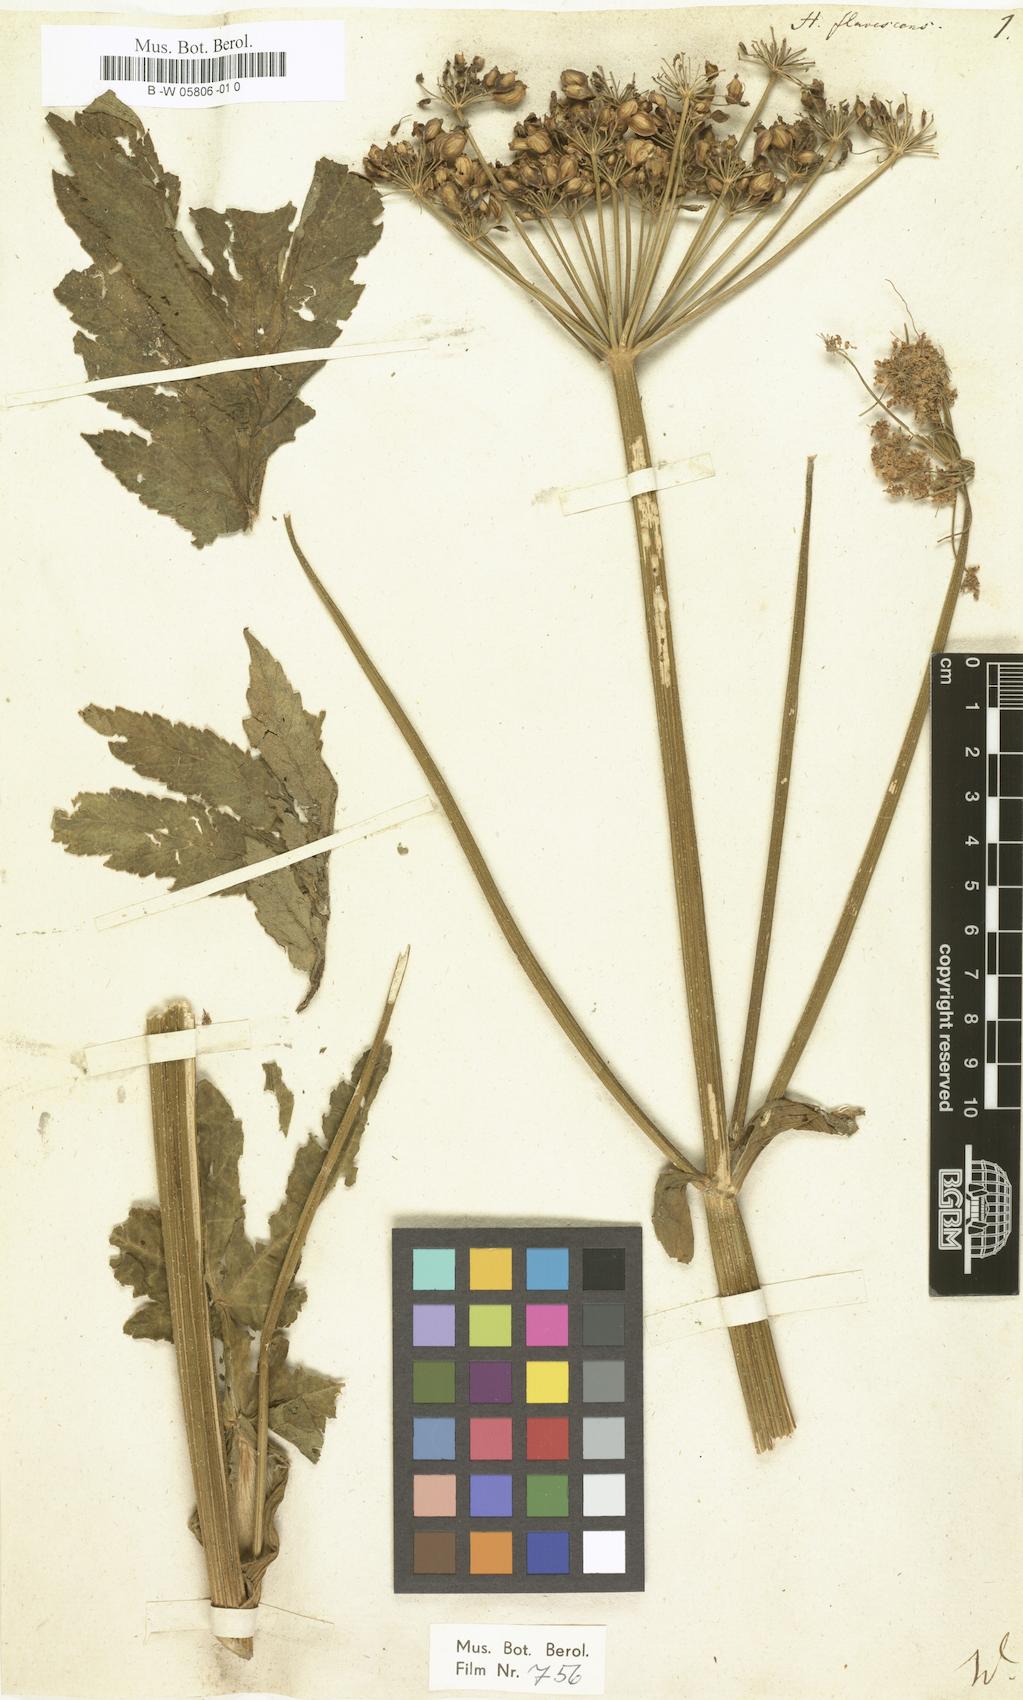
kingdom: Plantae
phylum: Tracheophyta
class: Magnoliopsida
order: Apiales
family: Apiaceae
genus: Heracleum
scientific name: Heracleum sphondylium
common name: Hogweed
